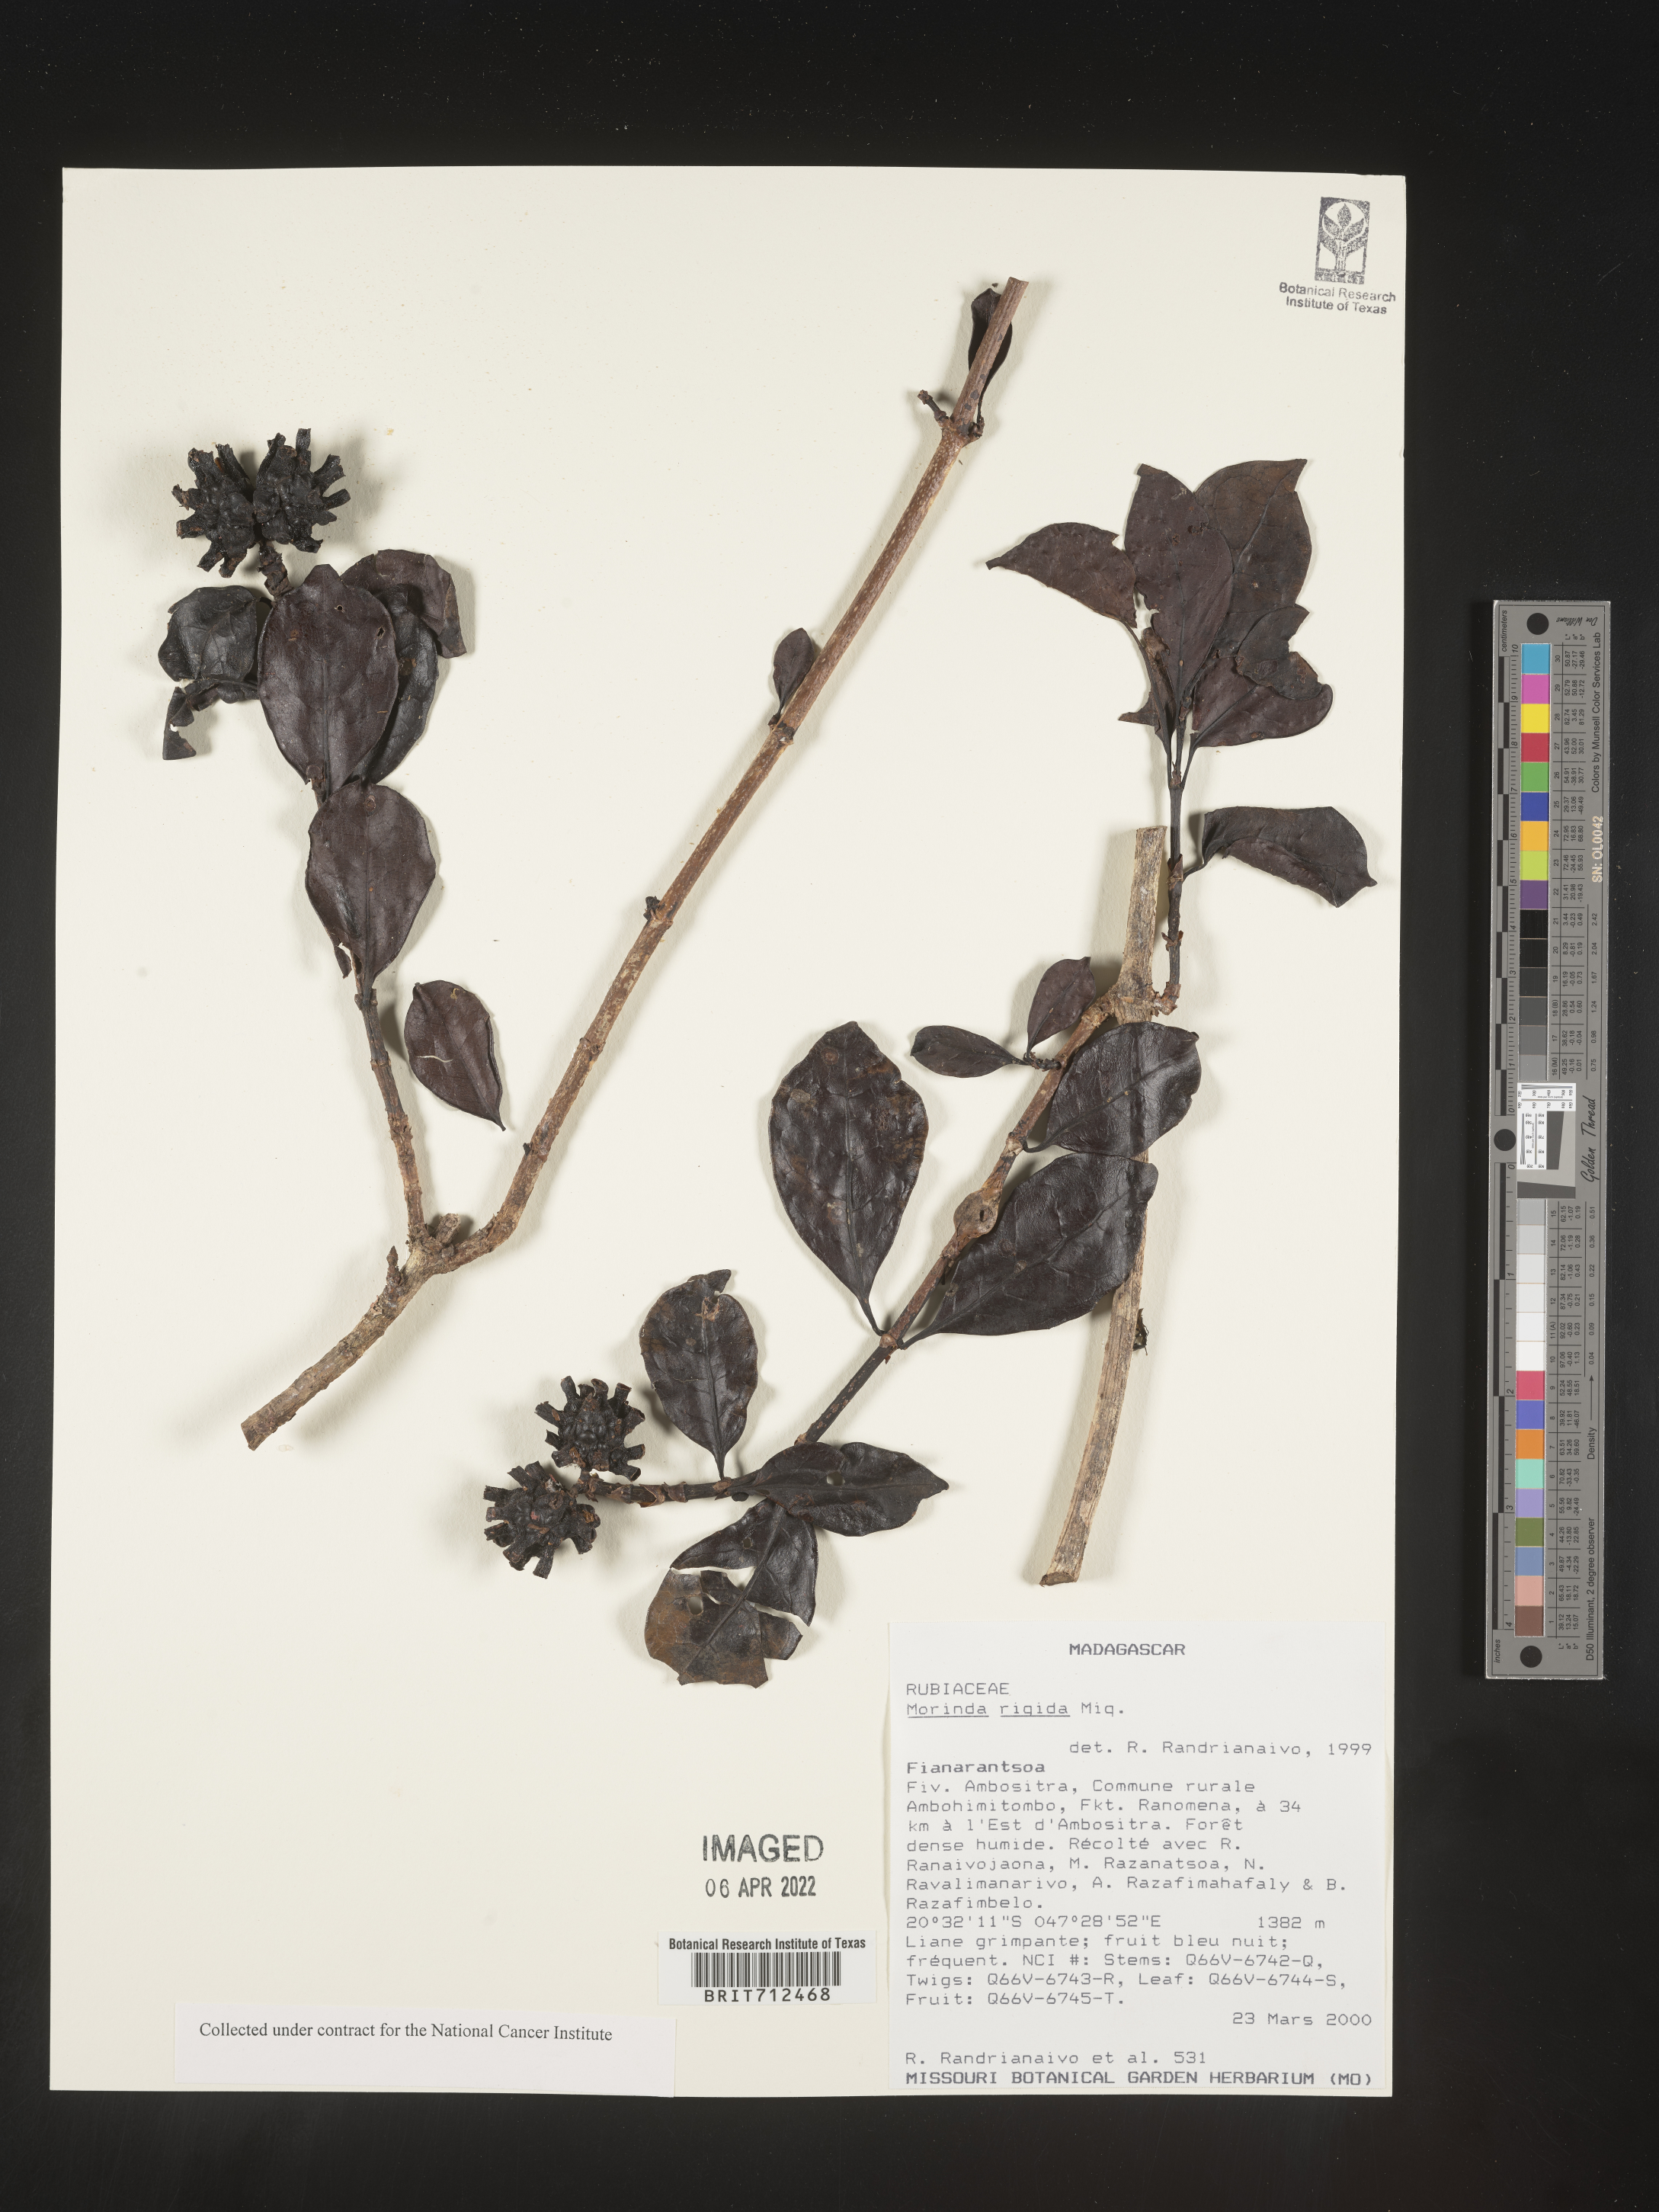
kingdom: Plantae
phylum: Tracheophyta
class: Magnoliopsida
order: Gentianales
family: Rubiaceae
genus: Morinda
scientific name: Morinda
